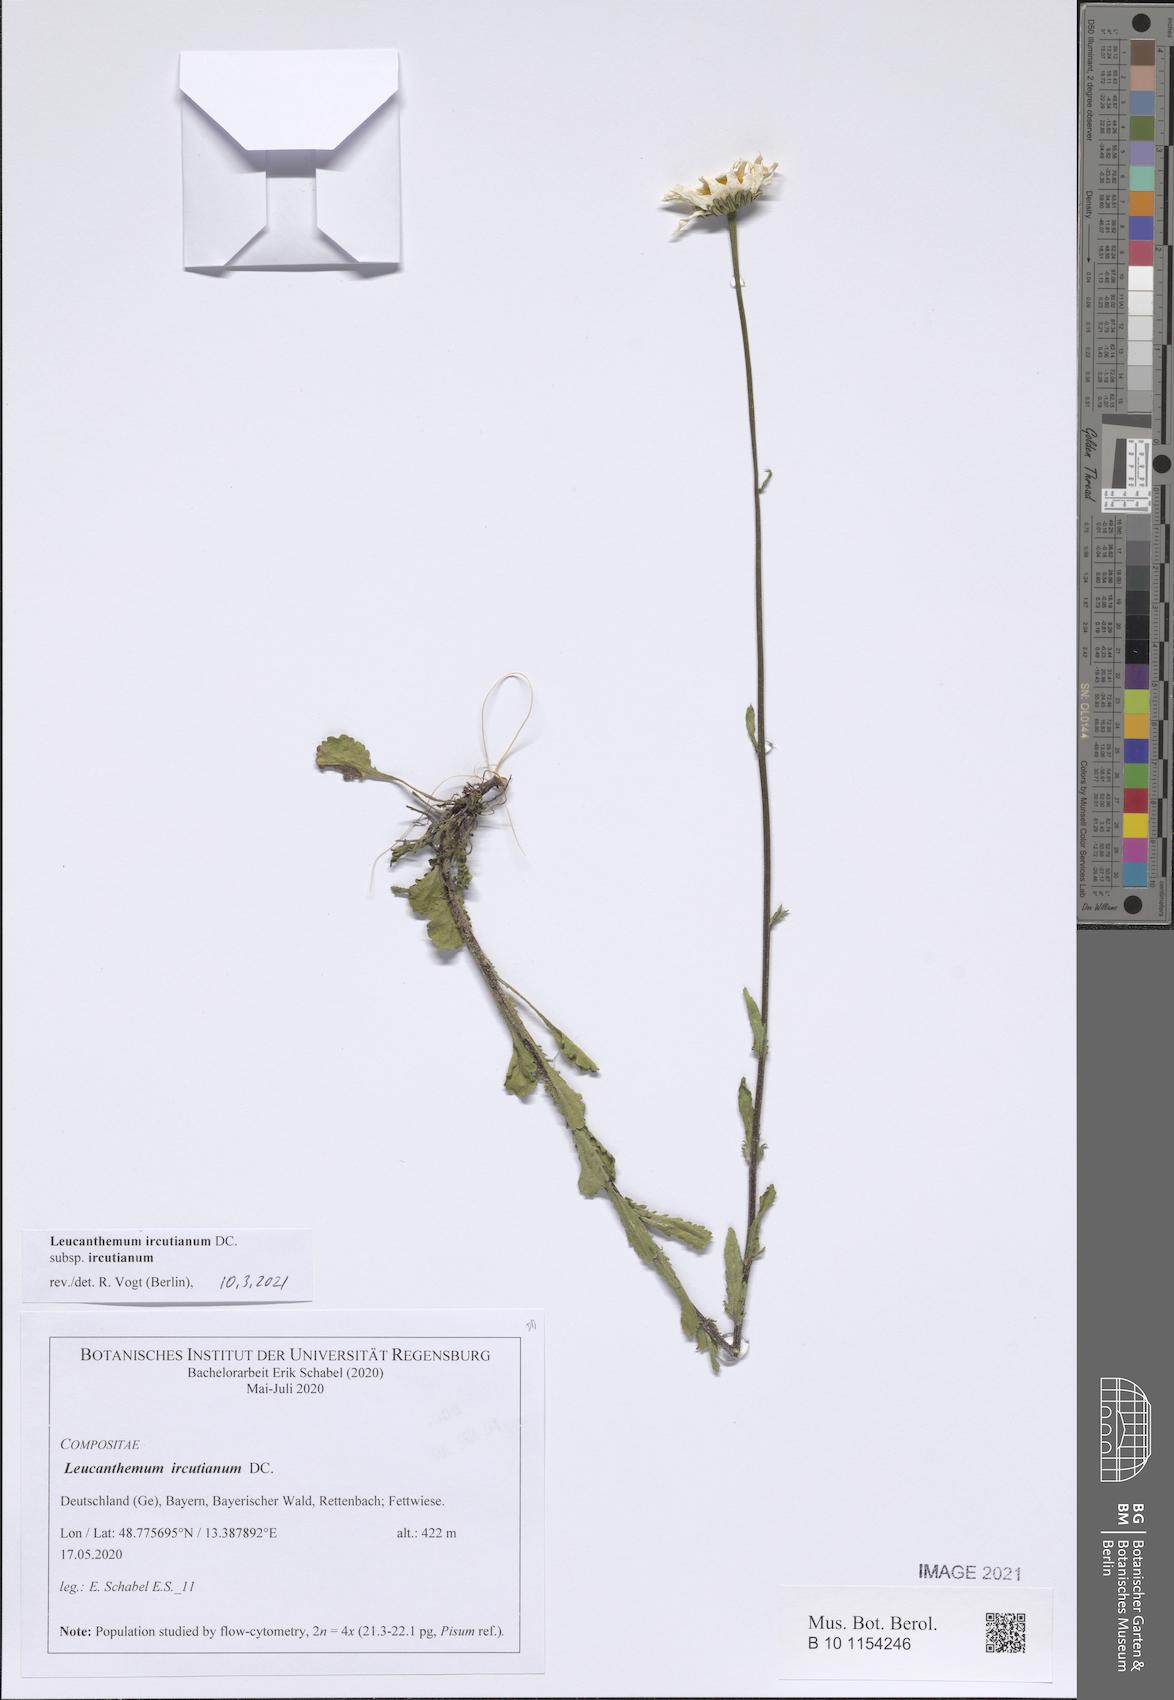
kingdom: Plantae
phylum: Tracheophyta
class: Magnoliopsida
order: Asterales
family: Asteraceae
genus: Leucanthemum
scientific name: Leucanthemum ircutianum
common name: Daisy
